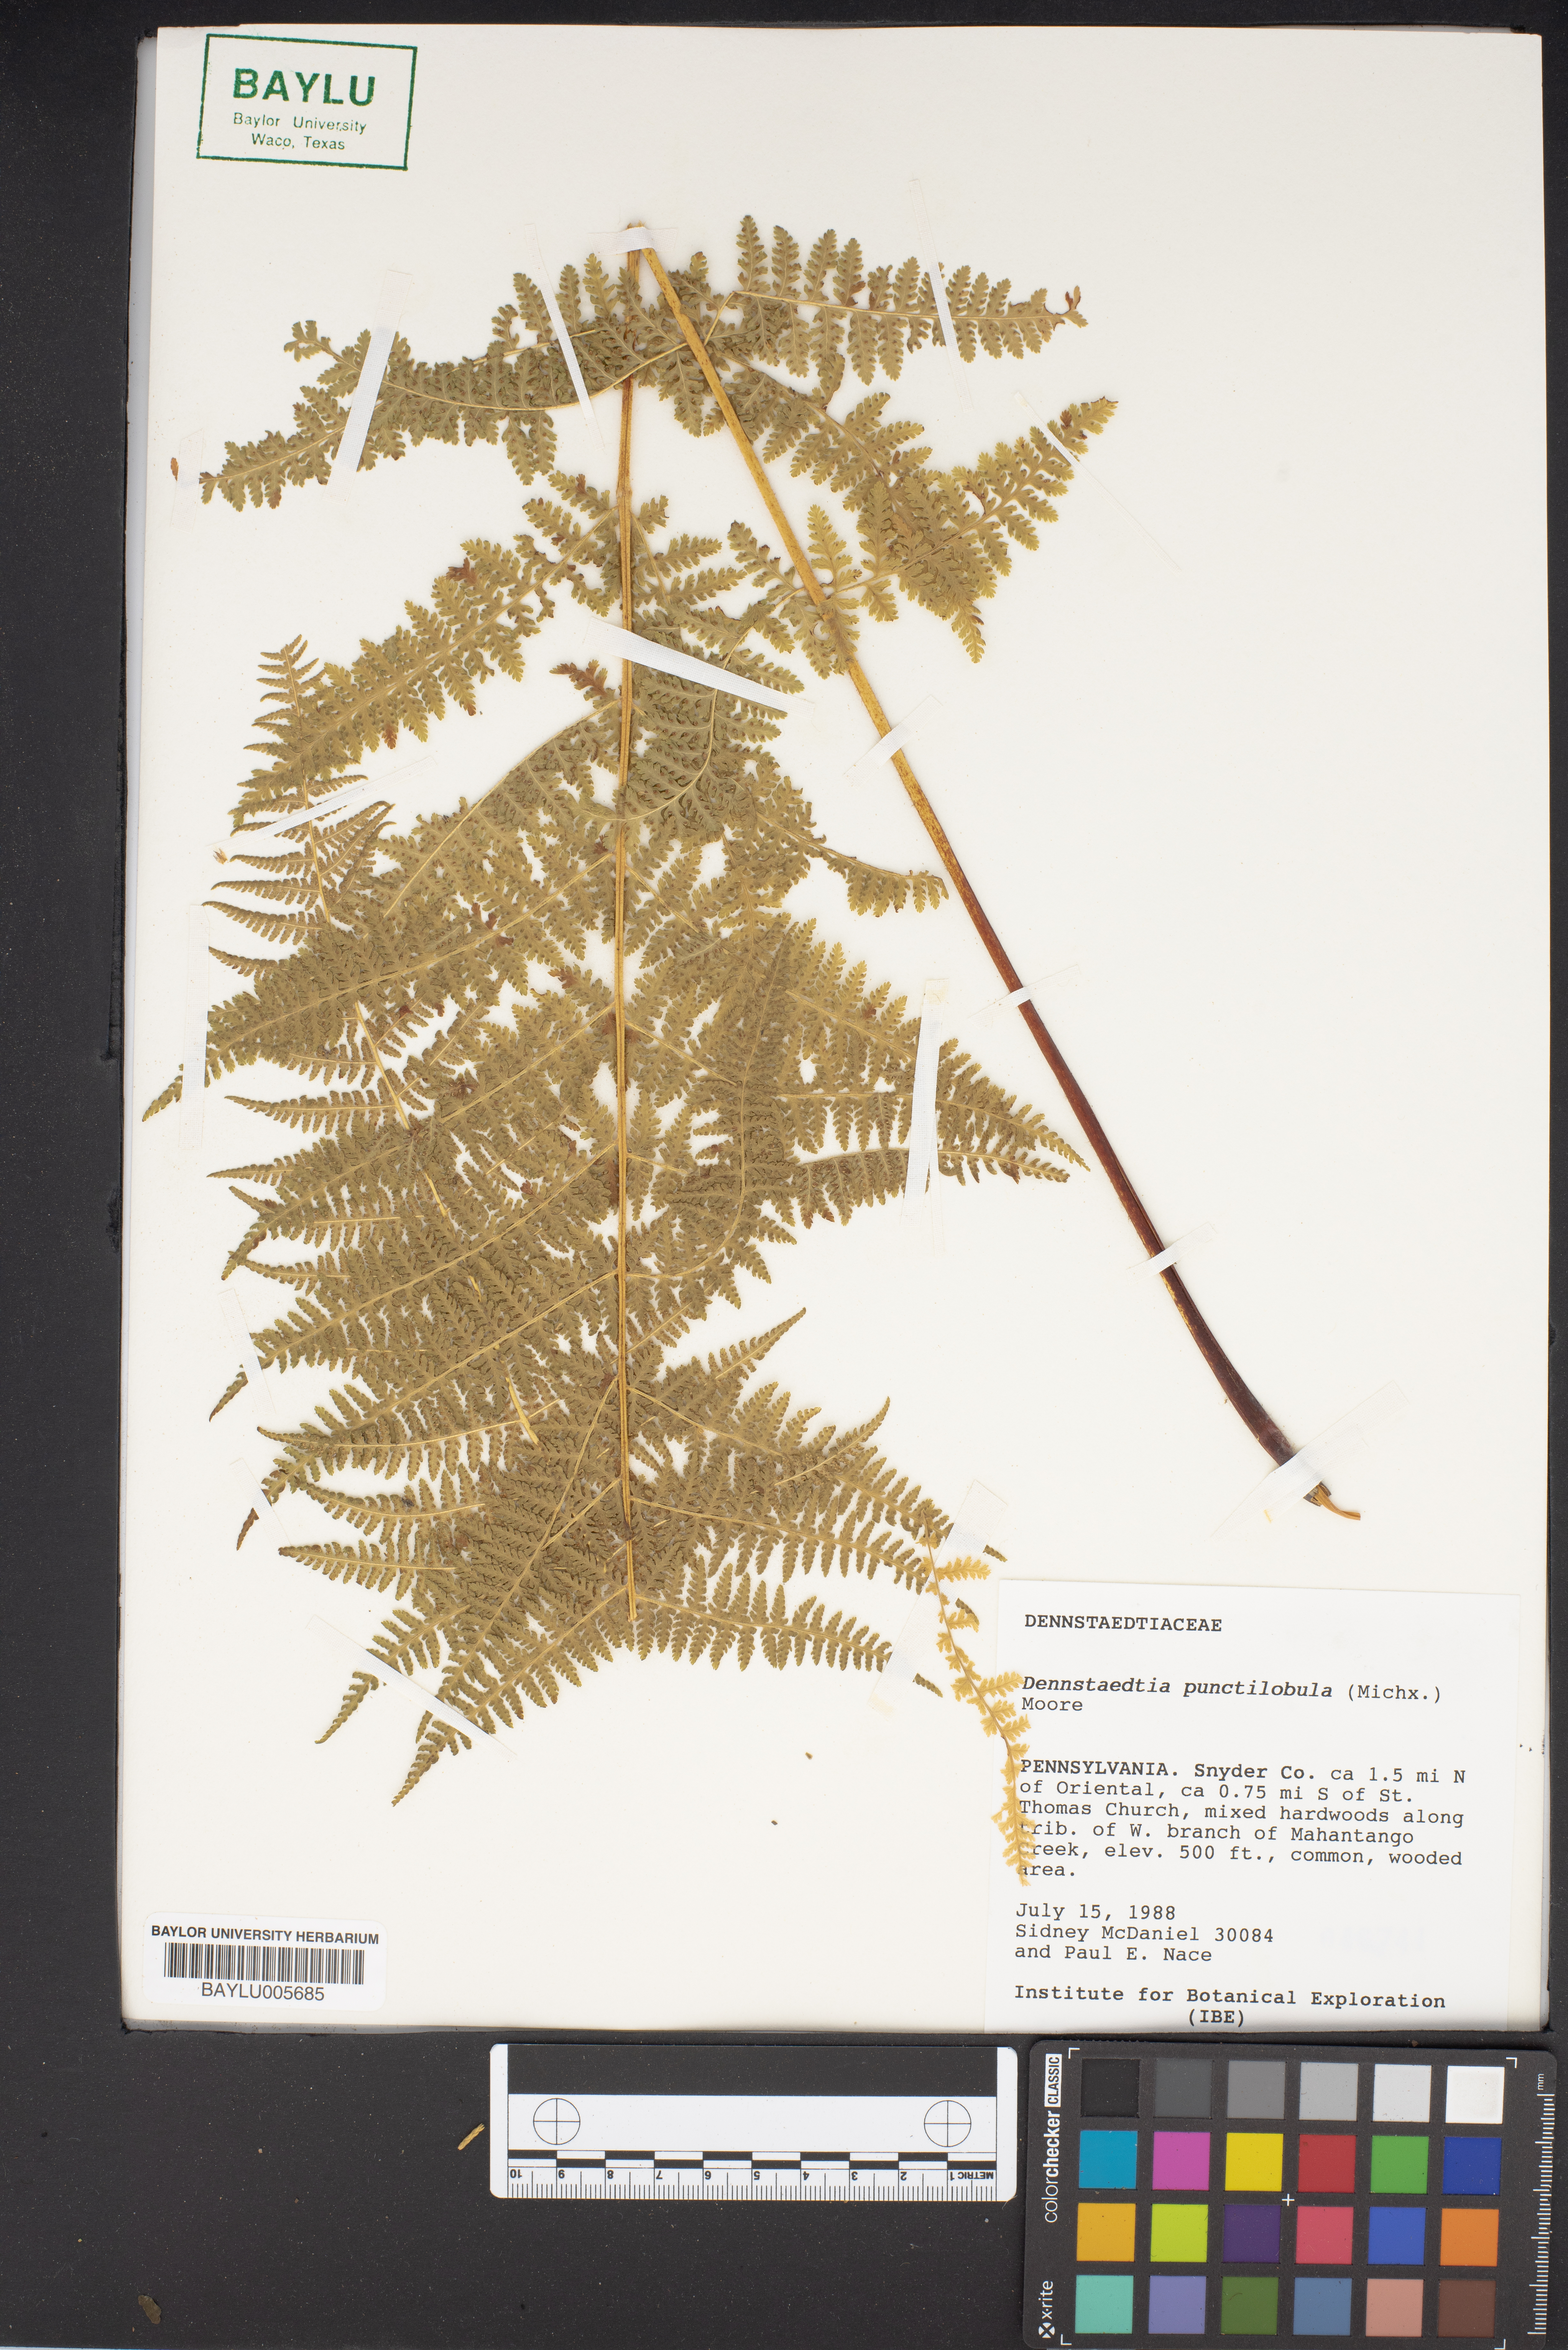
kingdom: Plantae
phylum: Tracheophyta
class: Polypodiopsida
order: Polypodiales
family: Dennstaedtiaceae
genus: Sitobolium
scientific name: Sitobolium punctilobum
